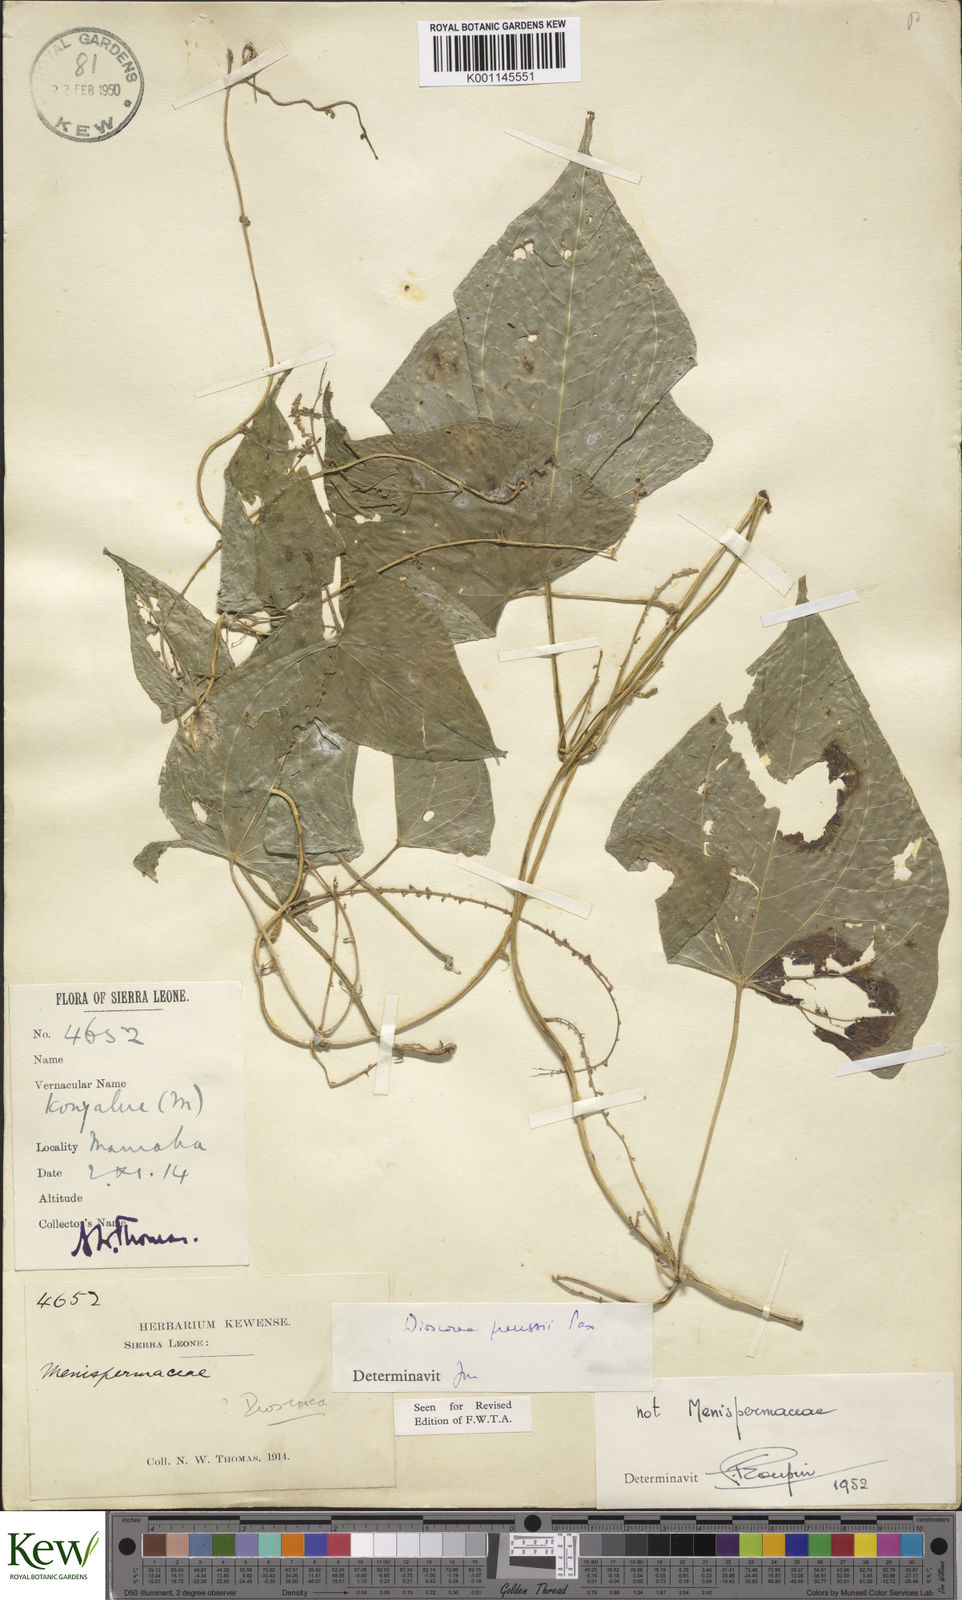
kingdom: Plantae
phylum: Tracheophyta
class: Liliopsida
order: Dioscoreales
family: Dioscoreaceae
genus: Dioscorea
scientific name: Dioscorea preussii
